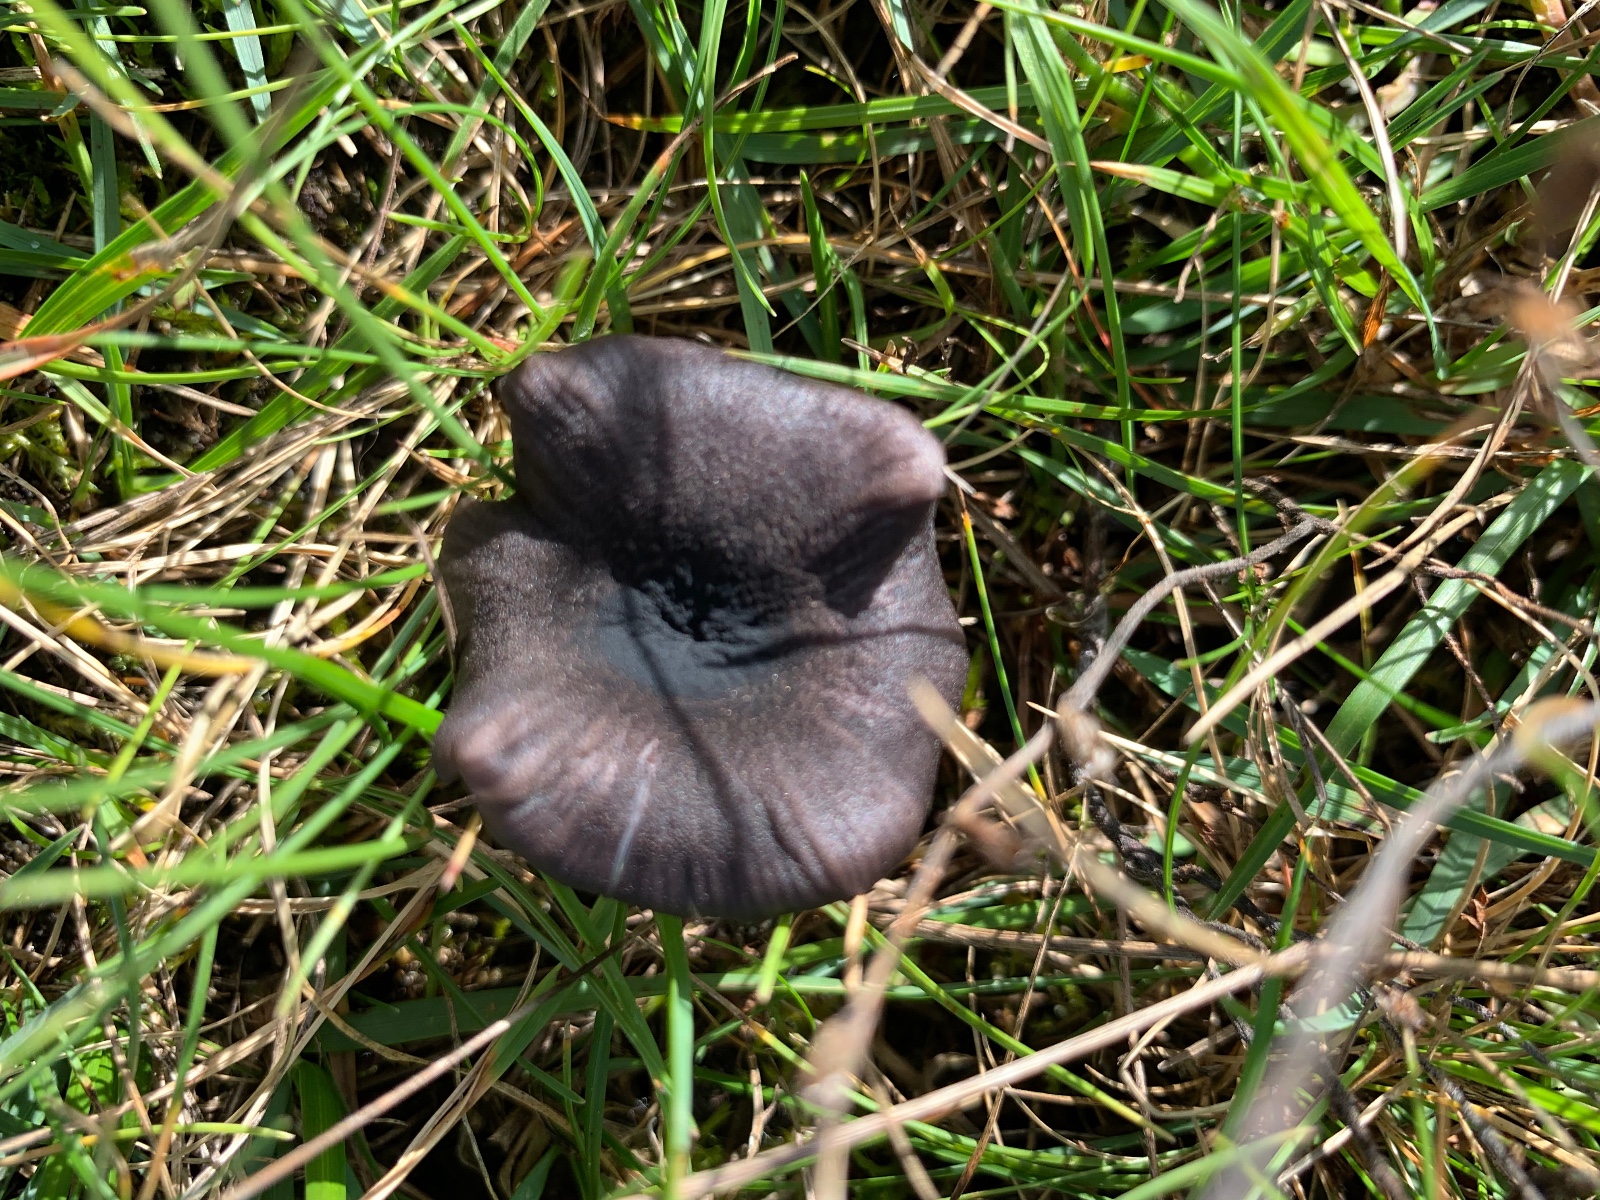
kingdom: Fungi
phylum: Basidiomycota
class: Agaricomycetes
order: Agaricales
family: Entolomataceae
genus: Entoloma
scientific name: Entoloma chalybeum
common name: blåbladet rødblad
